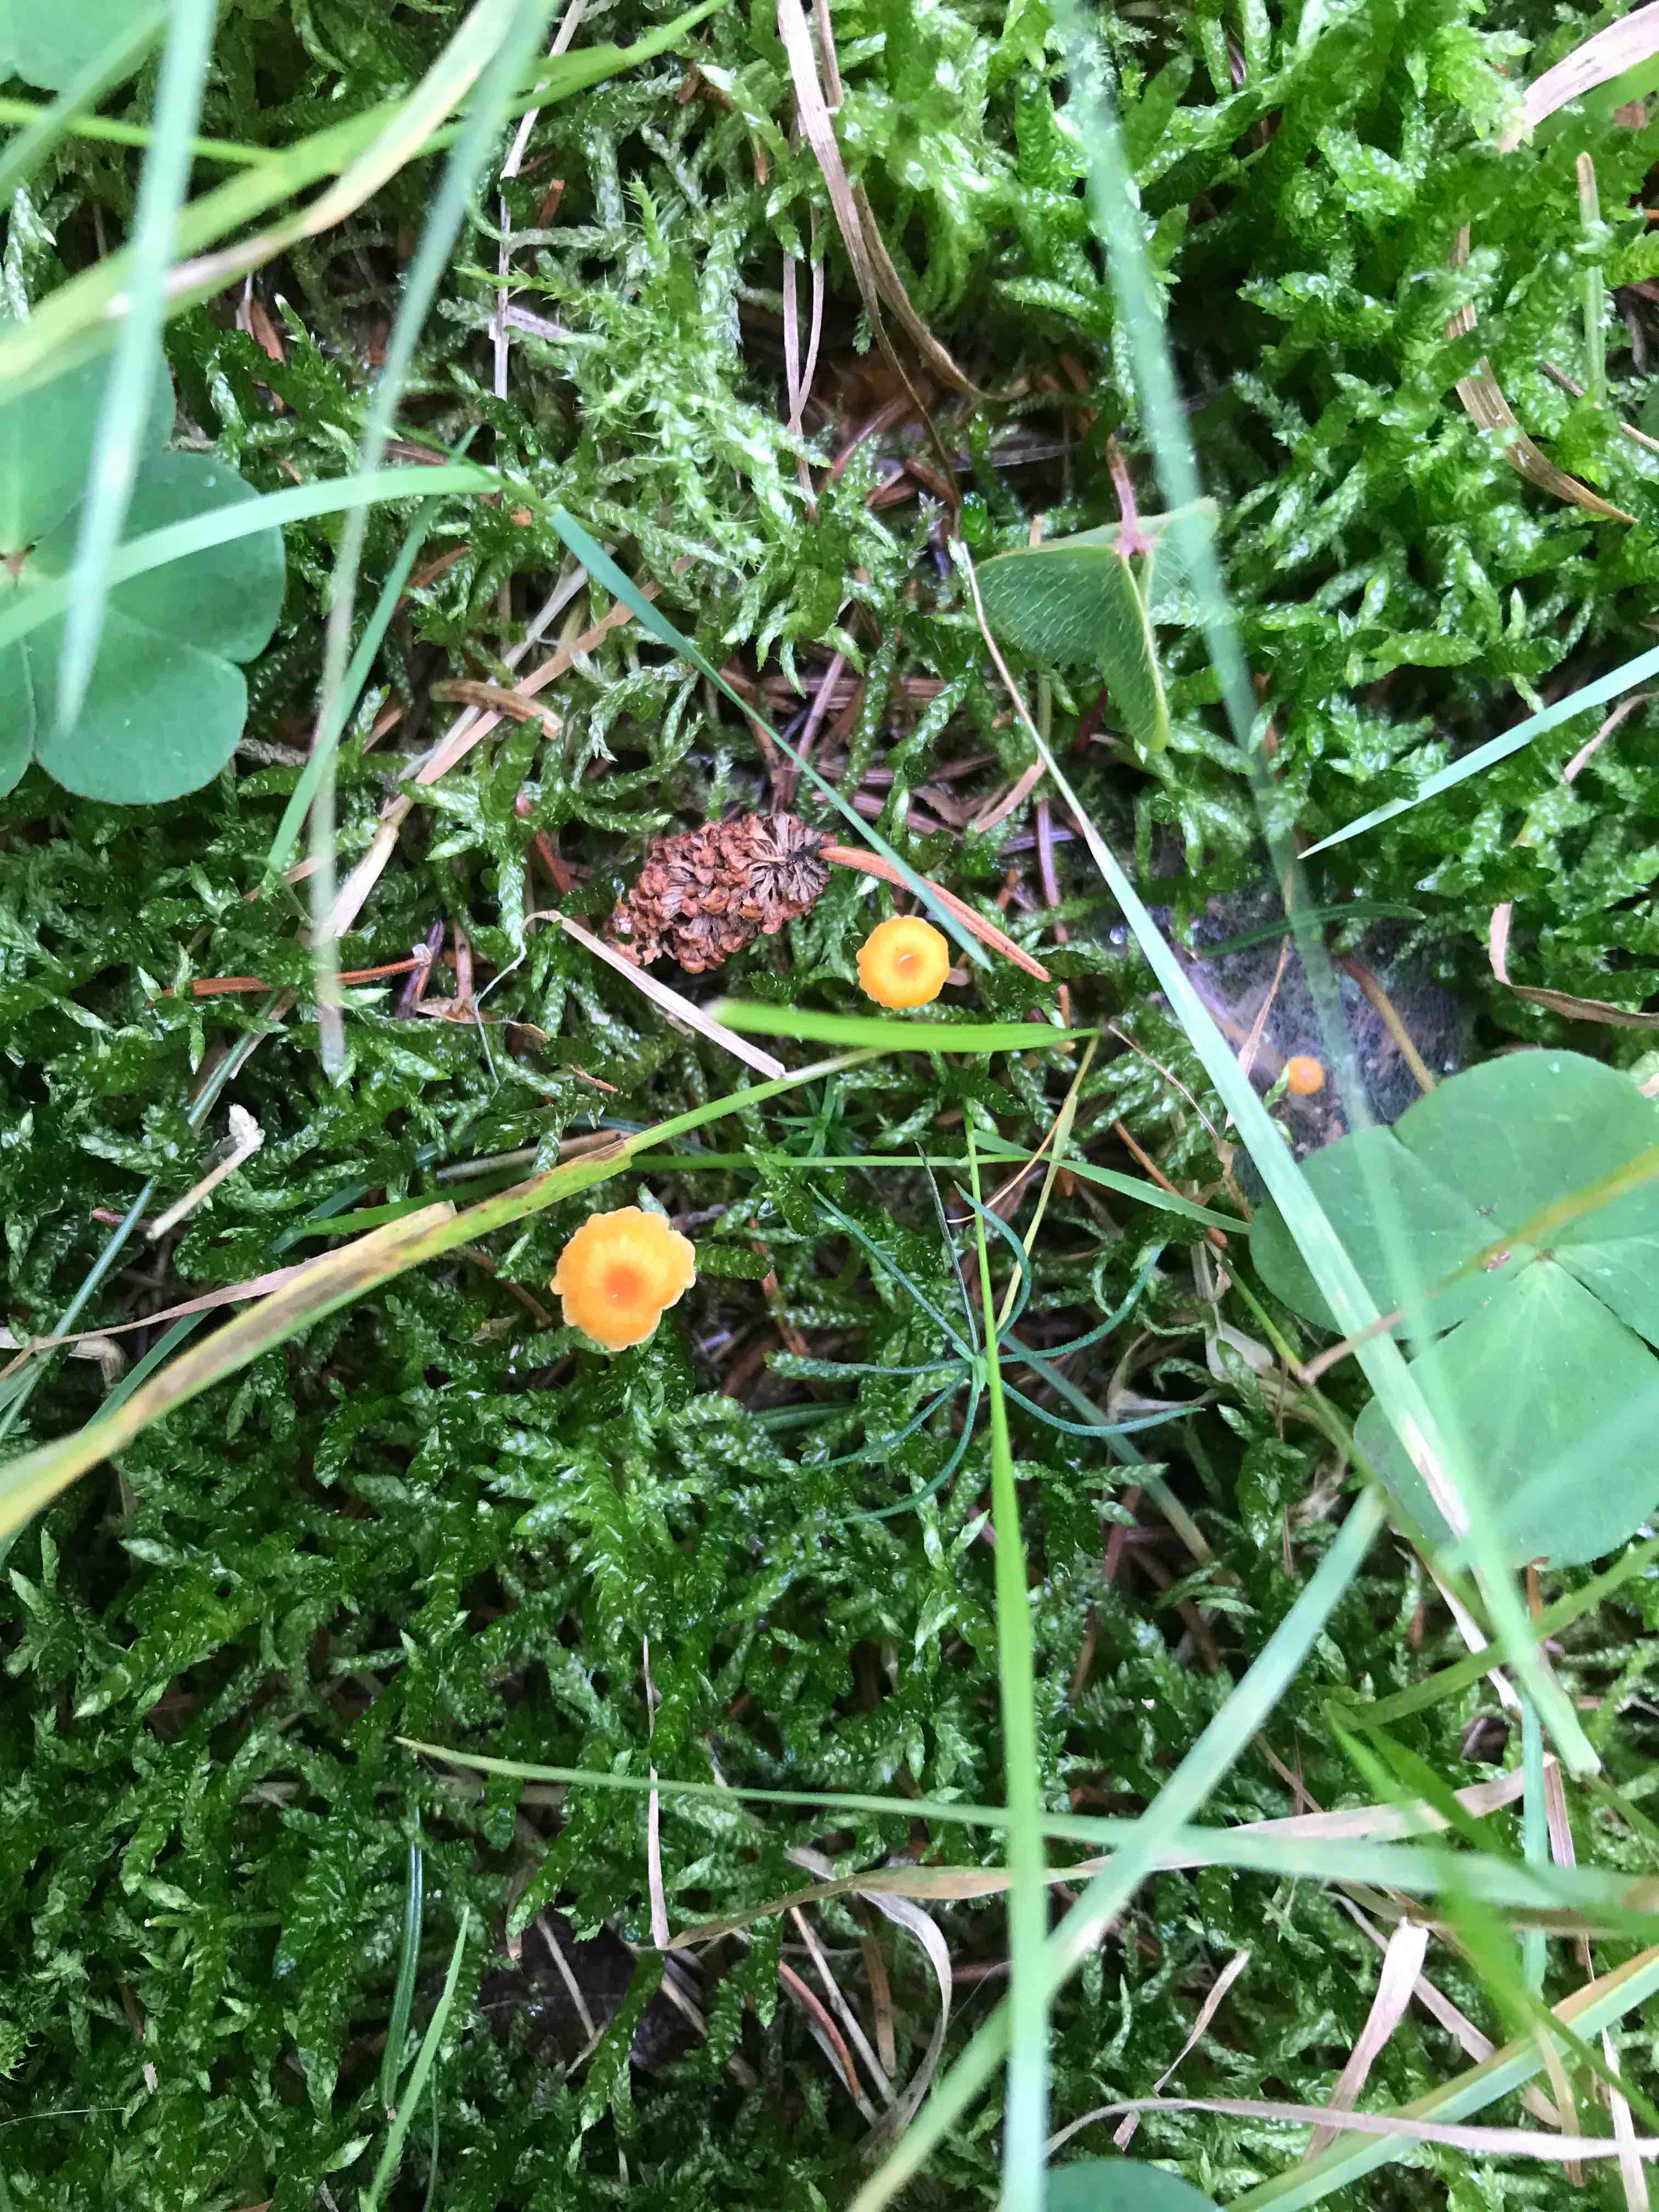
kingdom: Fungi
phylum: Basidiomycota
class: Agaricomycetes
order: Hymenochaetales
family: Rickenellaceae
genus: Rickenella
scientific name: Rickenella fibula
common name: orange mosnavlehat
